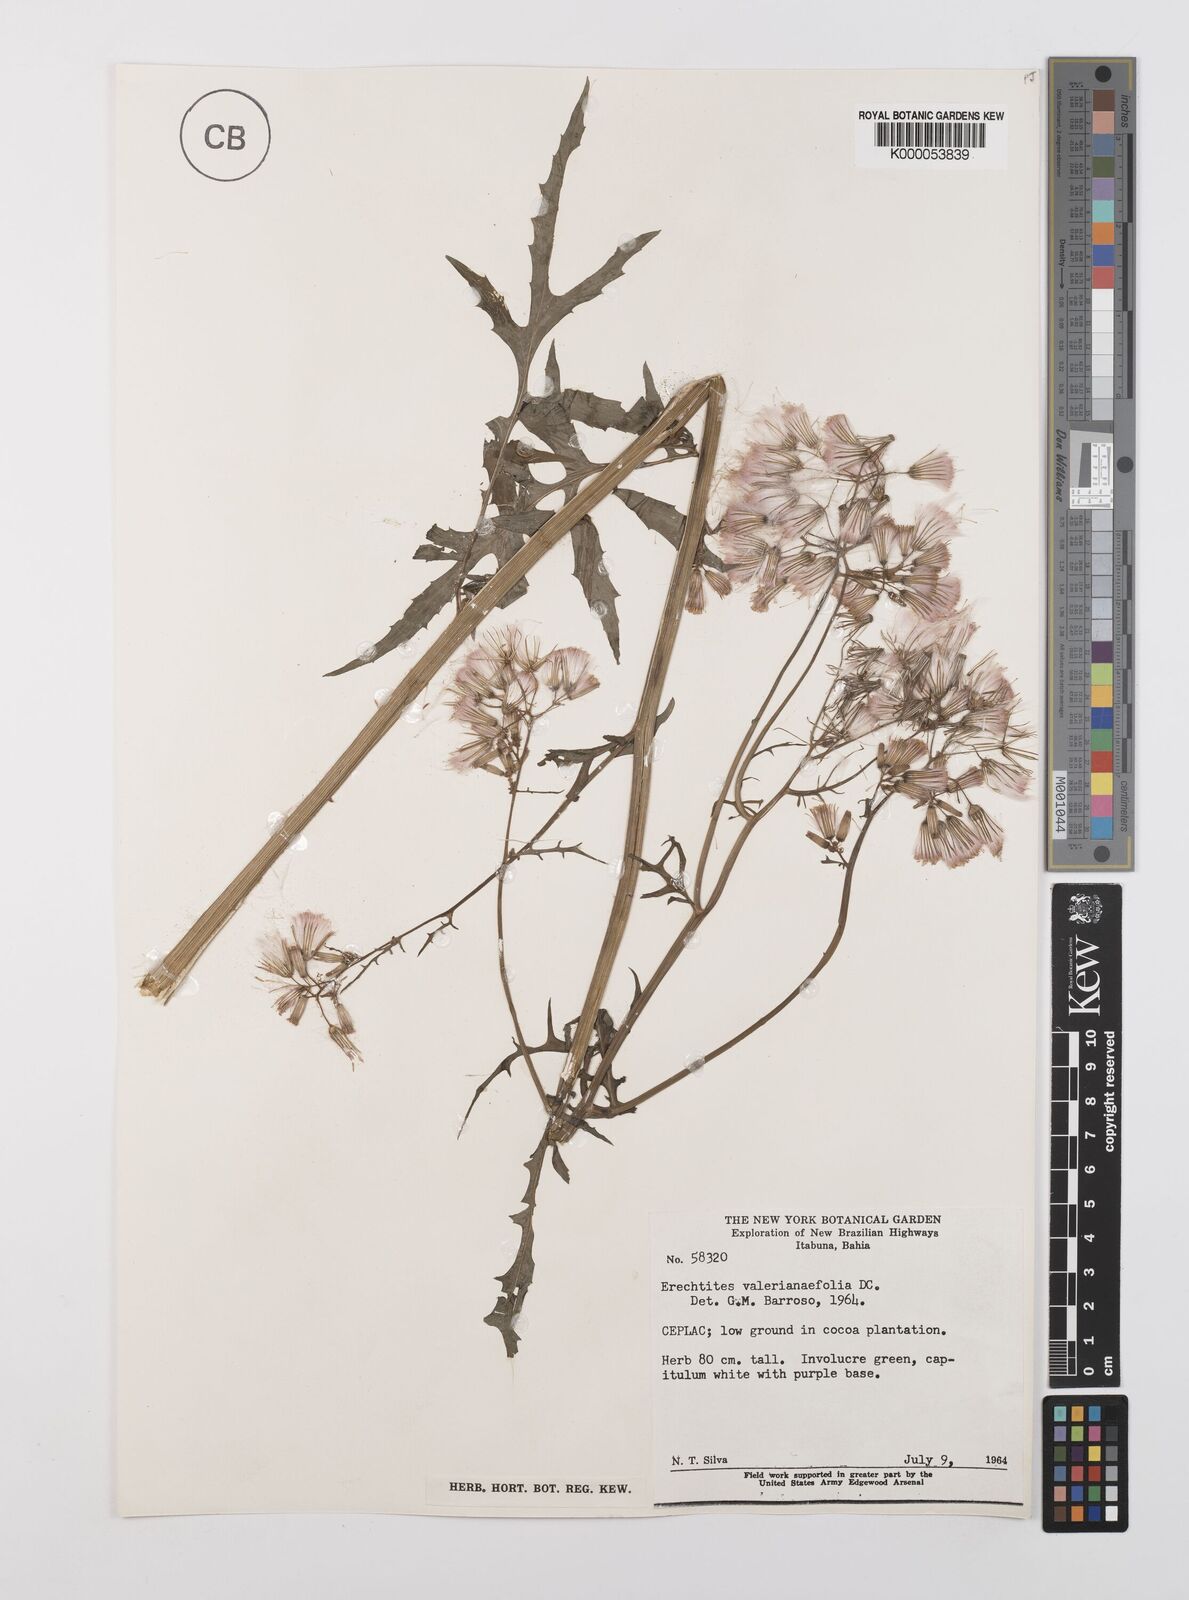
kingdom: Plantae
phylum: Tracheophyta
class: Magnoliopsida
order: Asterales
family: Asteraceae
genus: Erechtites
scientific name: Erechtites valerianifolius
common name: Tropical burnweed
